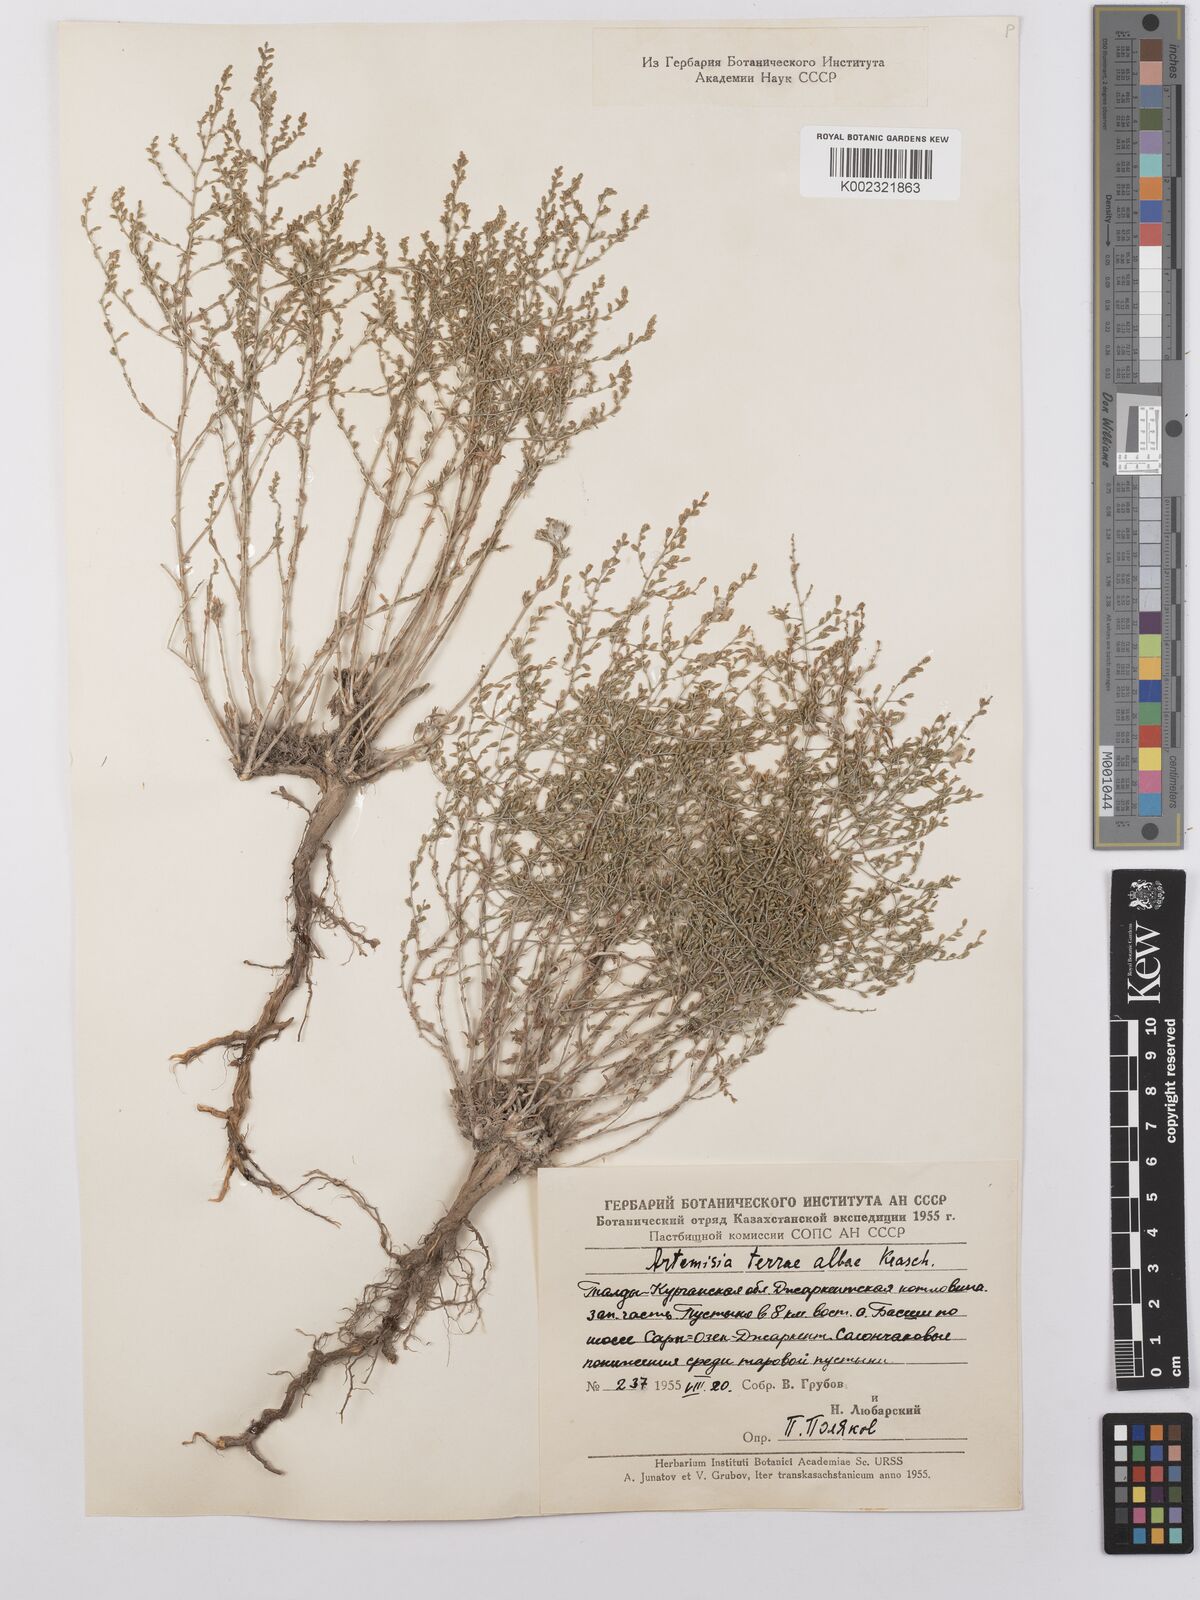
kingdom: Plantae
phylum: Tracheophyta
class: Magnoliopsida
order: Asterales
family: Asteraceae
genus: Artemisia
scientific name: Artemisia terrae-albae
